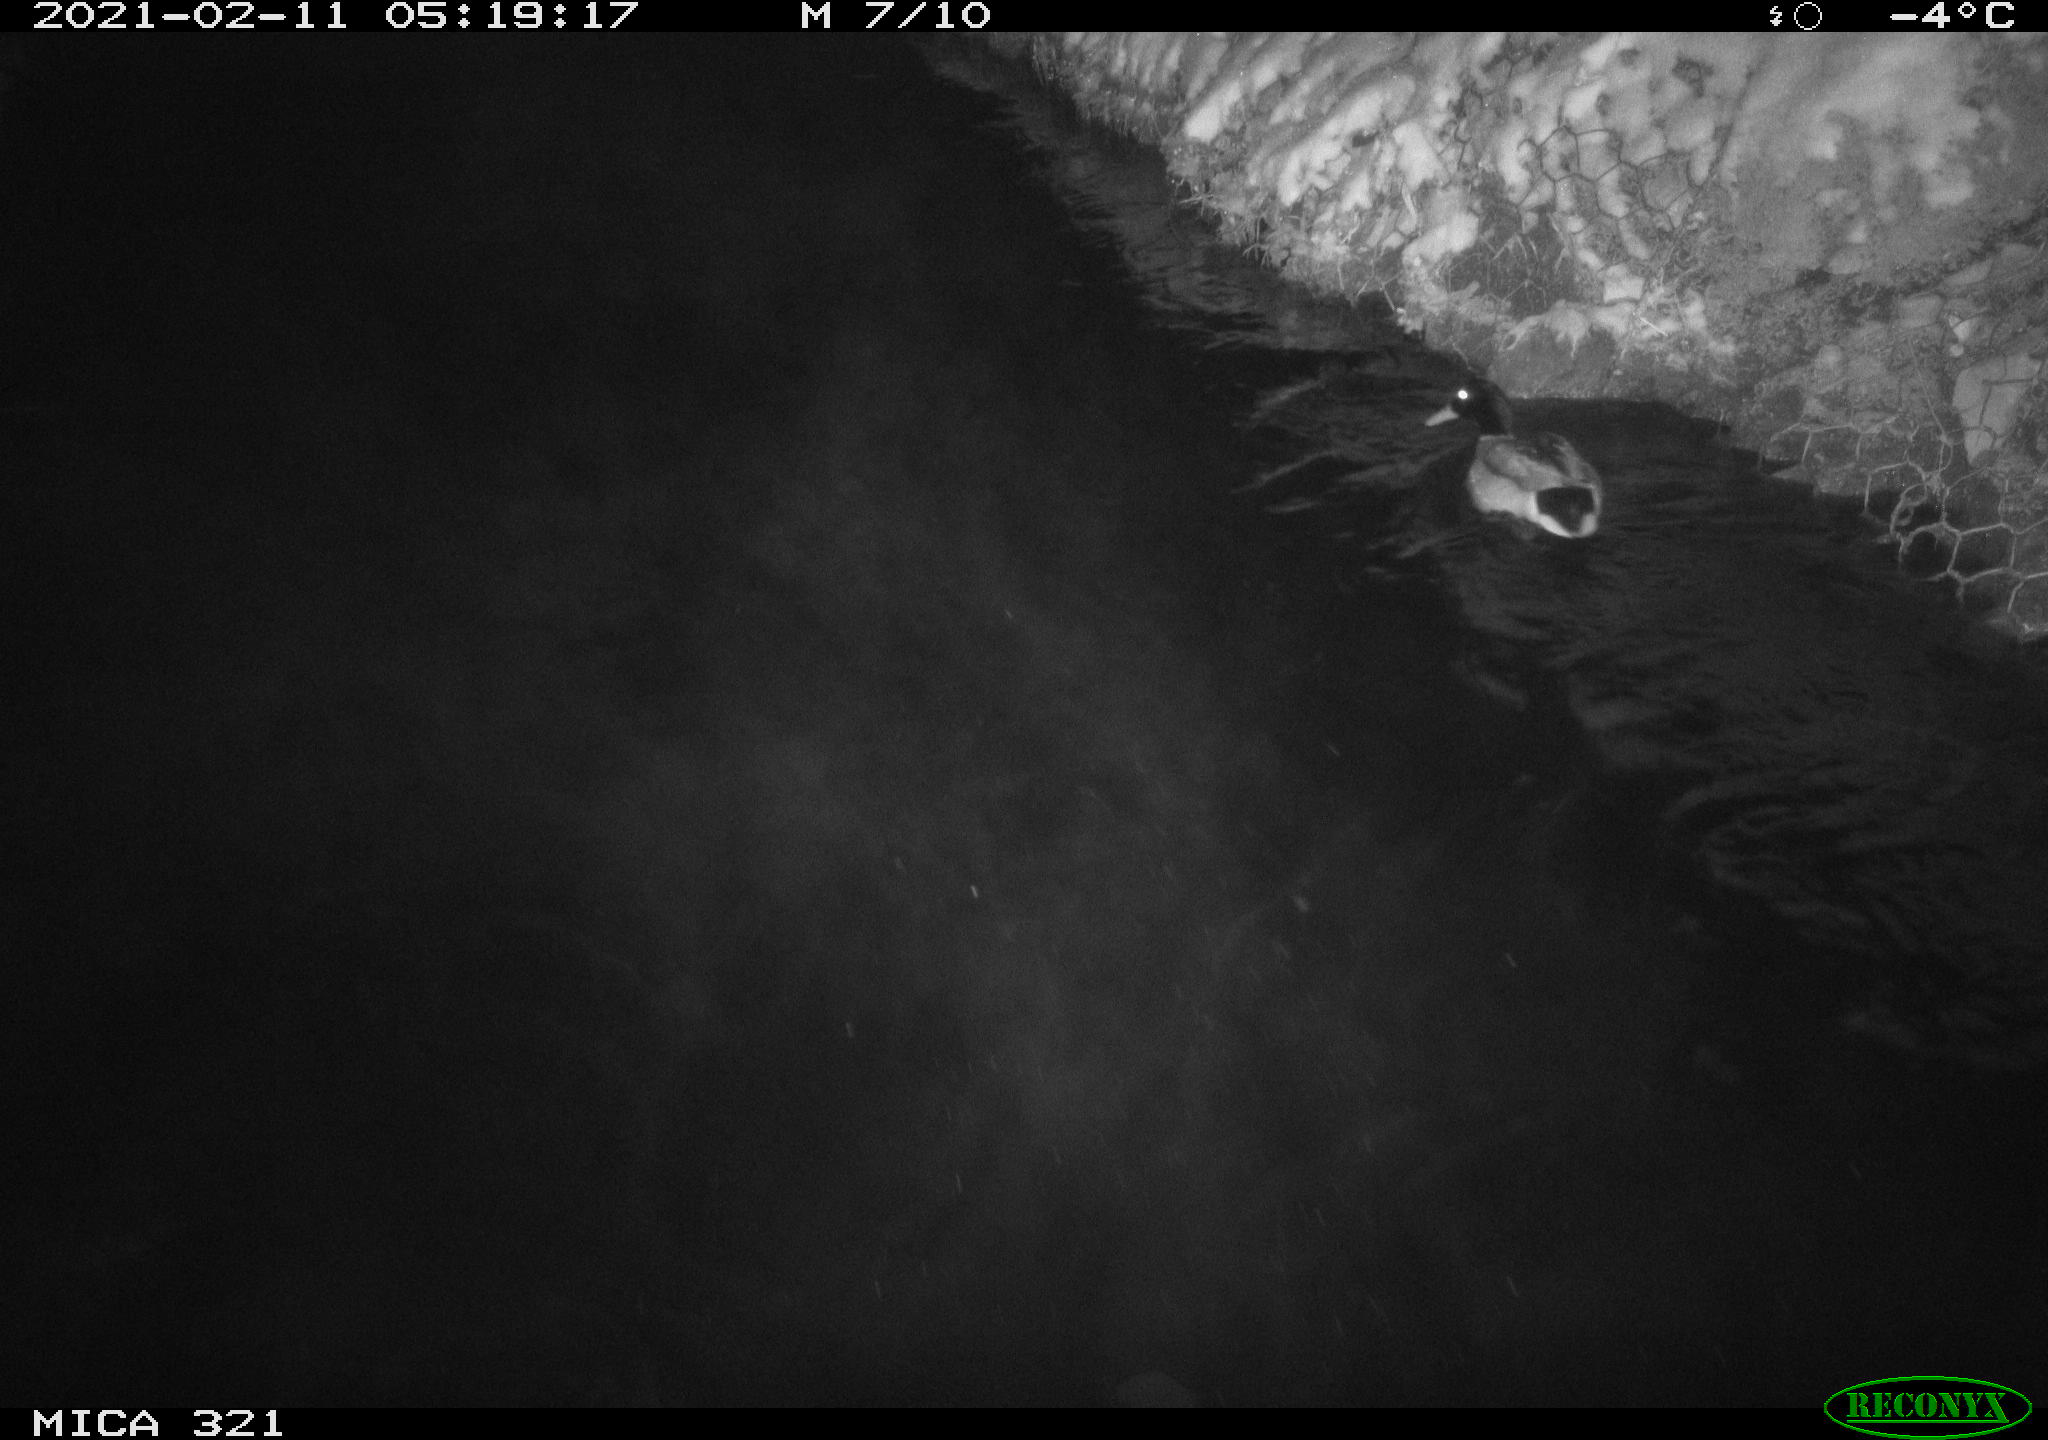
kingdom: Animalia
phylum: Chordata
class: Aves
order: Anseriformes
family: Anatidae
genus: Anas
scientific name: Anas platyrhynchos
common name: Mallard
